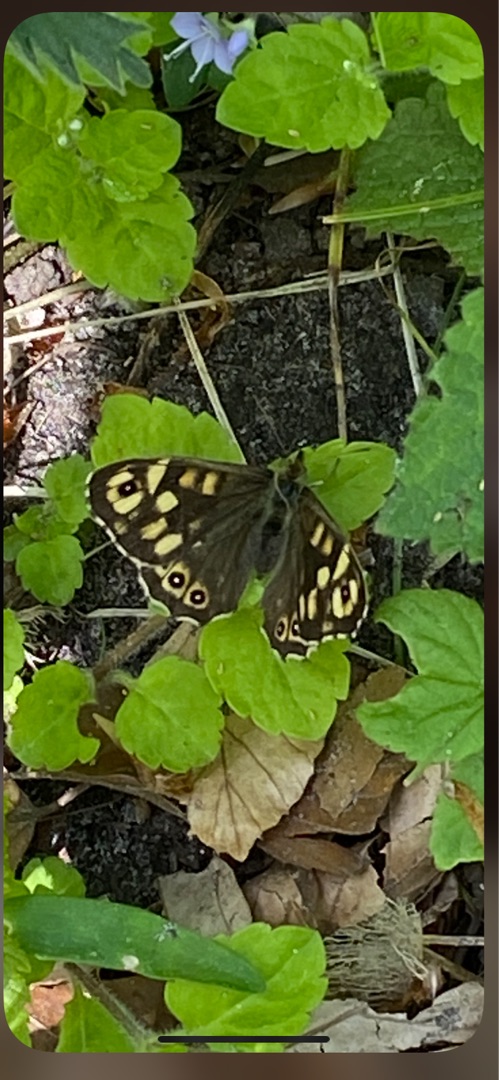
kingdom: Animalia
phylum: Arthropoda
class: Insecta
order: Lepidoptera
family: Nymphalidae
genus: Pararge
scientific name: Pararge aegeria
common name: Skovrandøje
